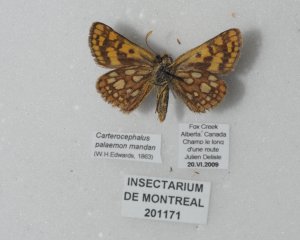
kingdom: Animalia
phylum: Arthropoda
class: Insecta
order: Lepidoptera
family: Hesperiidae
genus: Carterocephalus
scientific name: Carterocephalus palaemon
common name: Chequered Skipper
